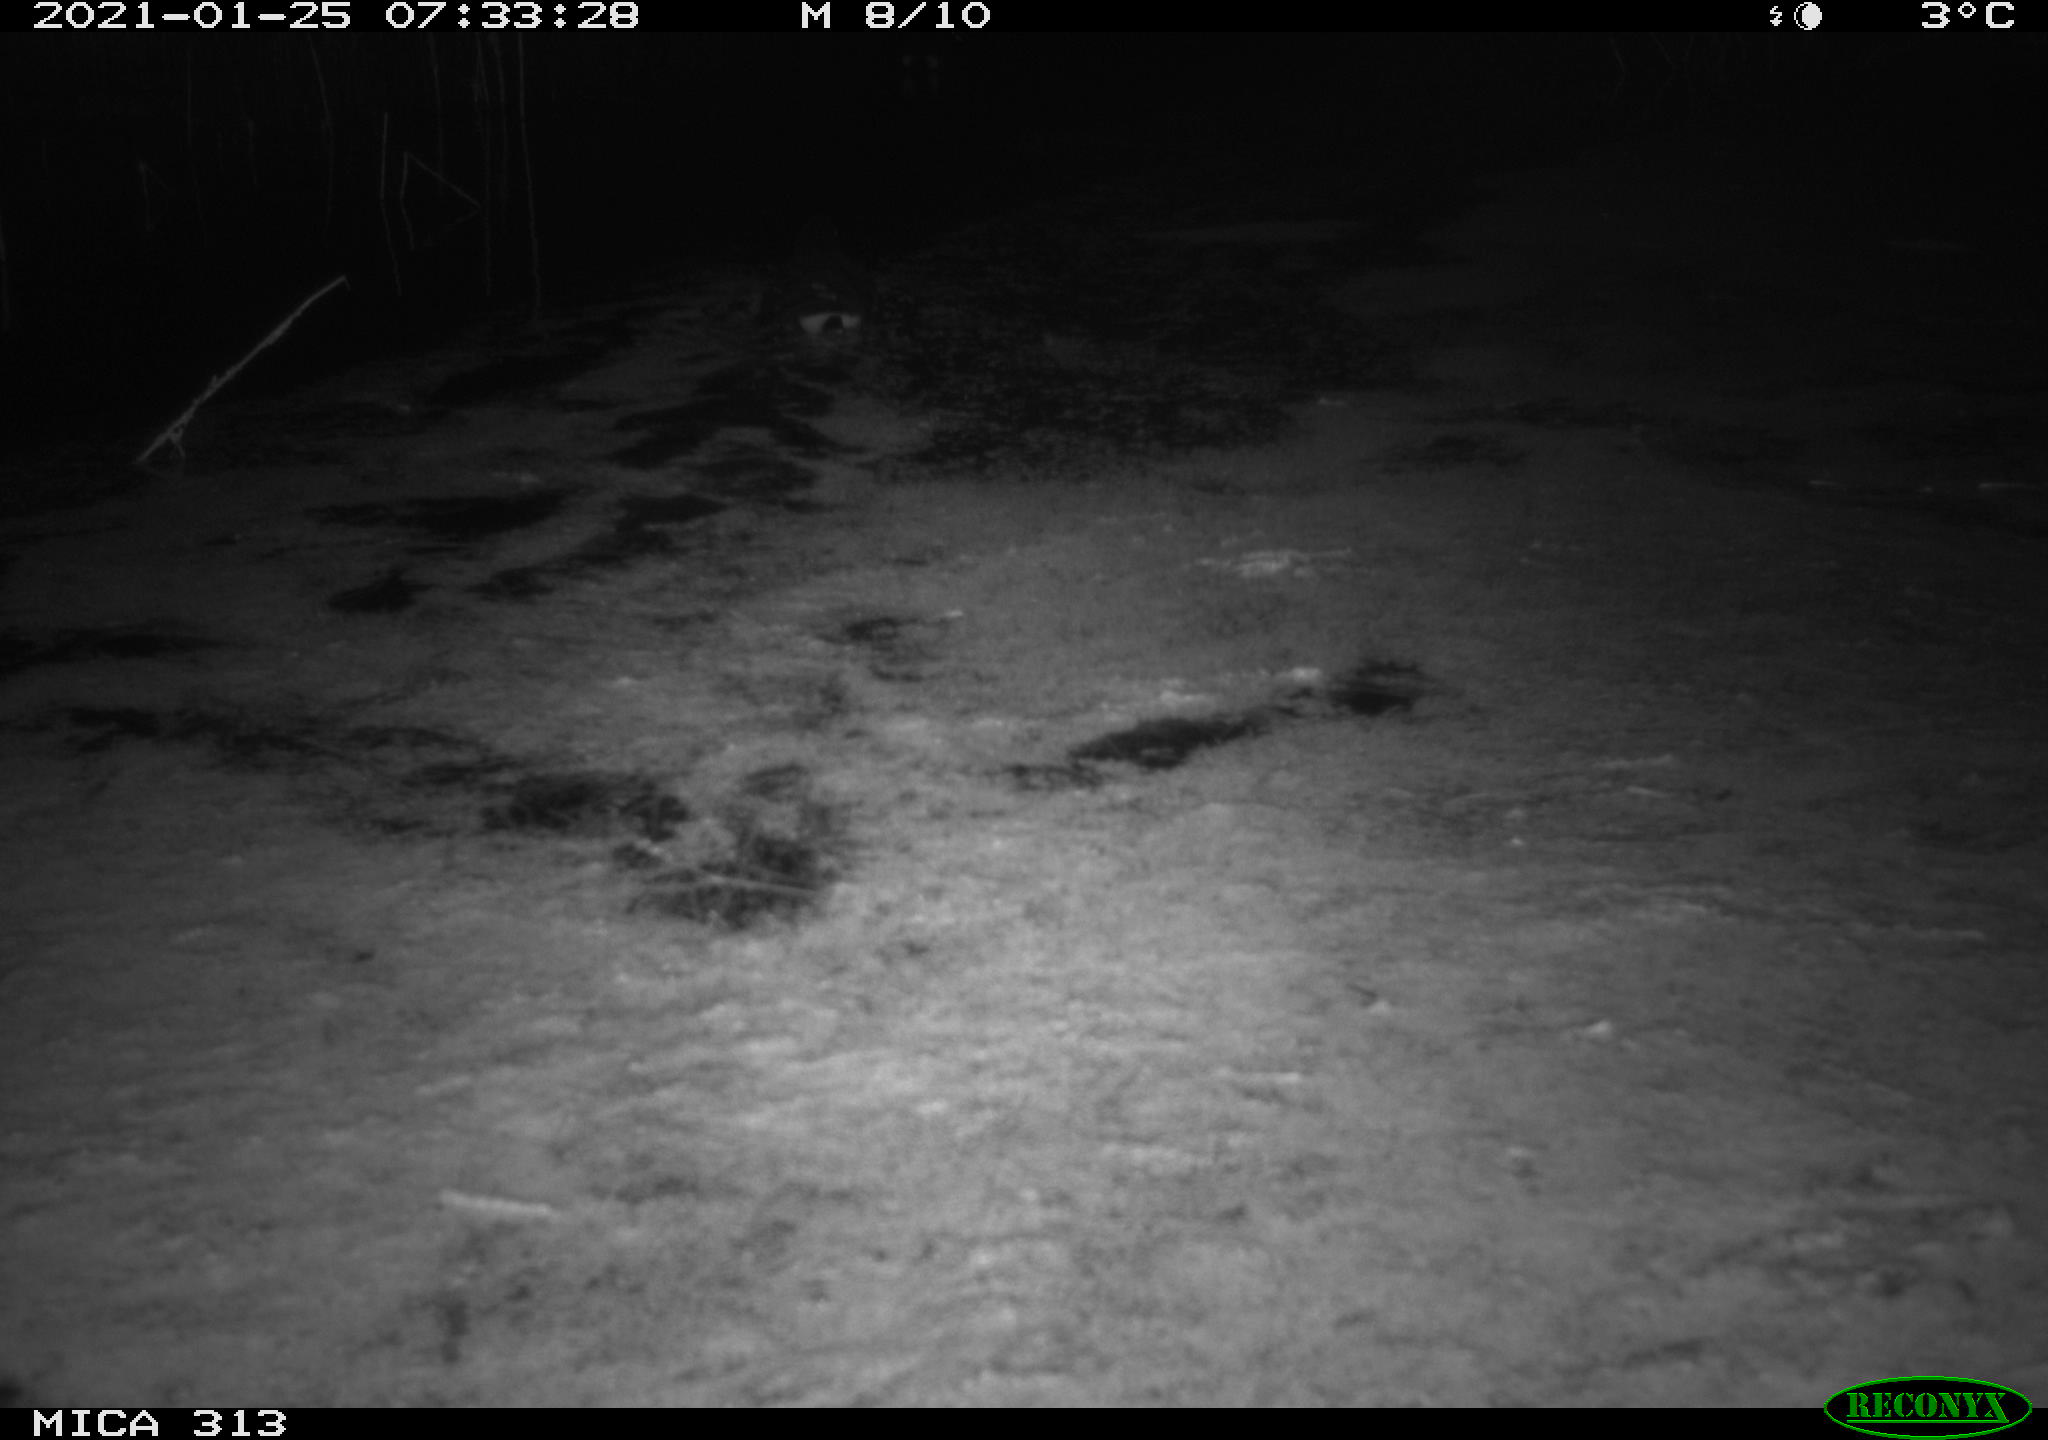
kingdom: Animalia
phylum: Chordata
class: Aves
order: Gruiformes
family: Rallidae
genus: Fulica
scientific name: Fulica atra
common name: Eurasian coot
